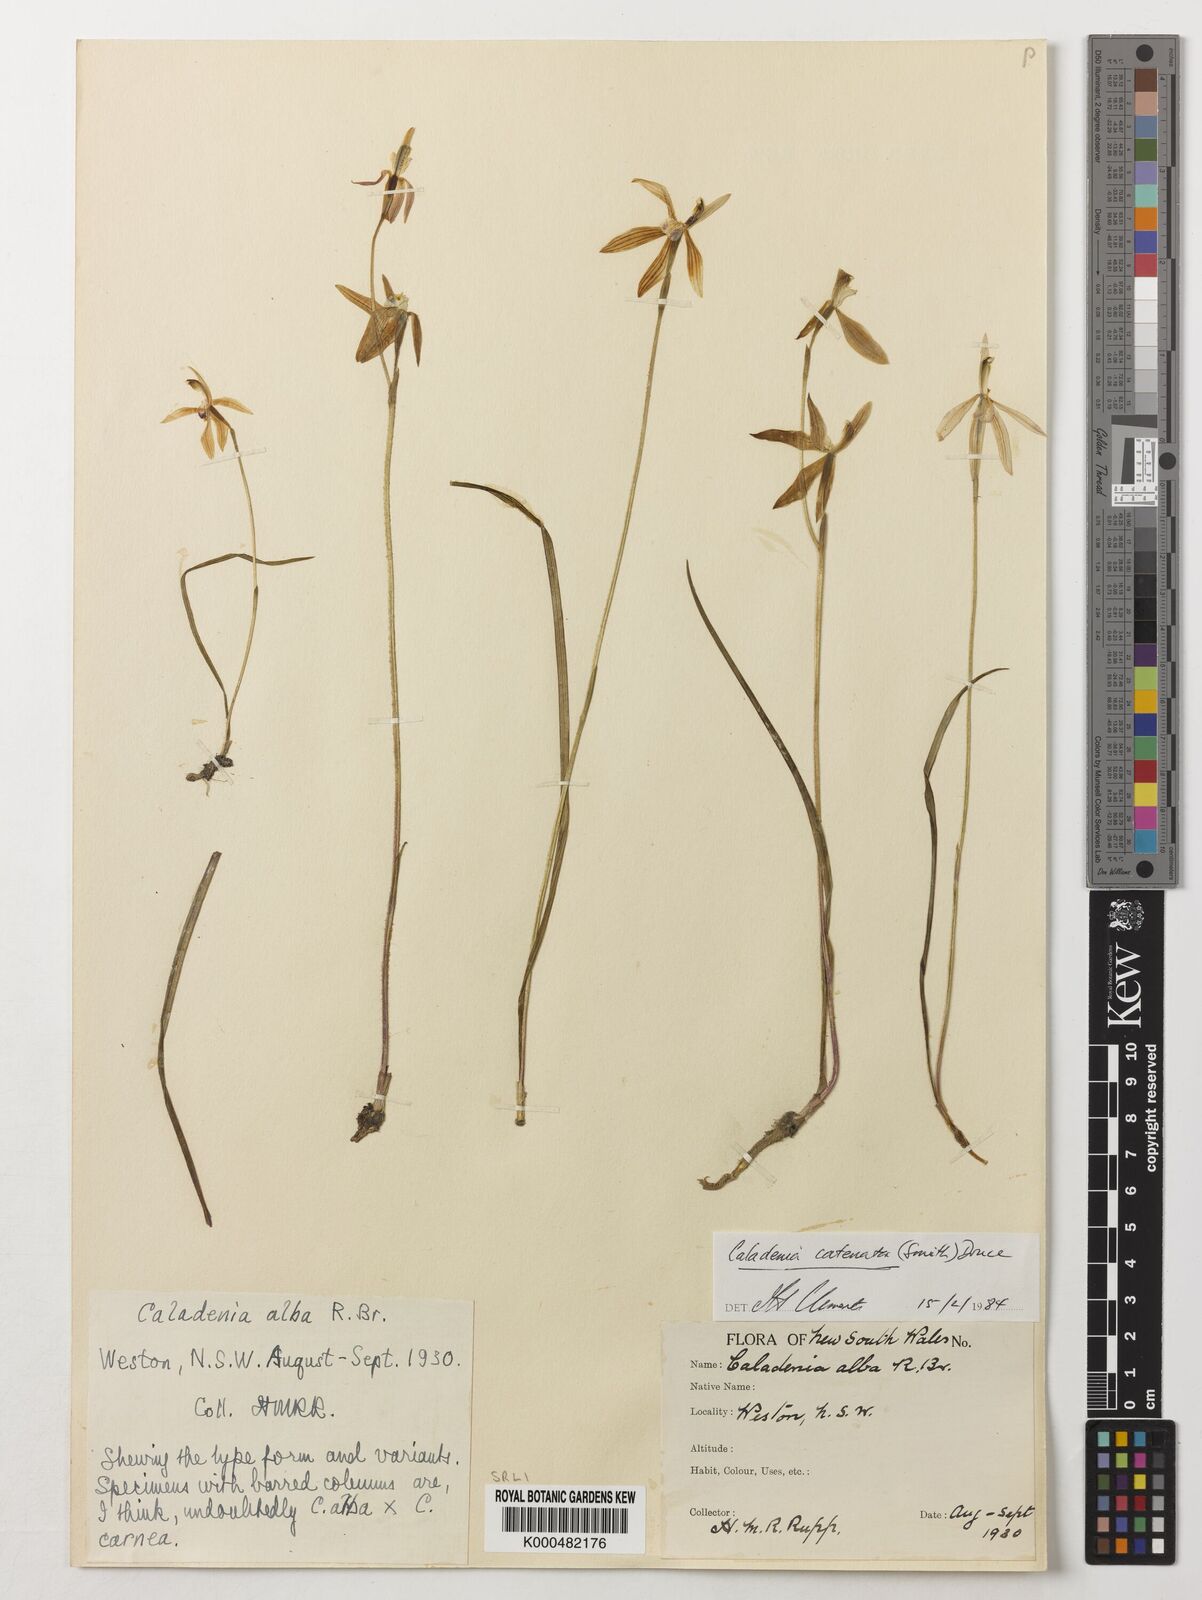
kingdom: Plantae
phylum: Tracheophyta
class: Liliopsida
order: Asparagales
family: Orchidaceae
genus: Caladenia
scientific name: Caladenia
